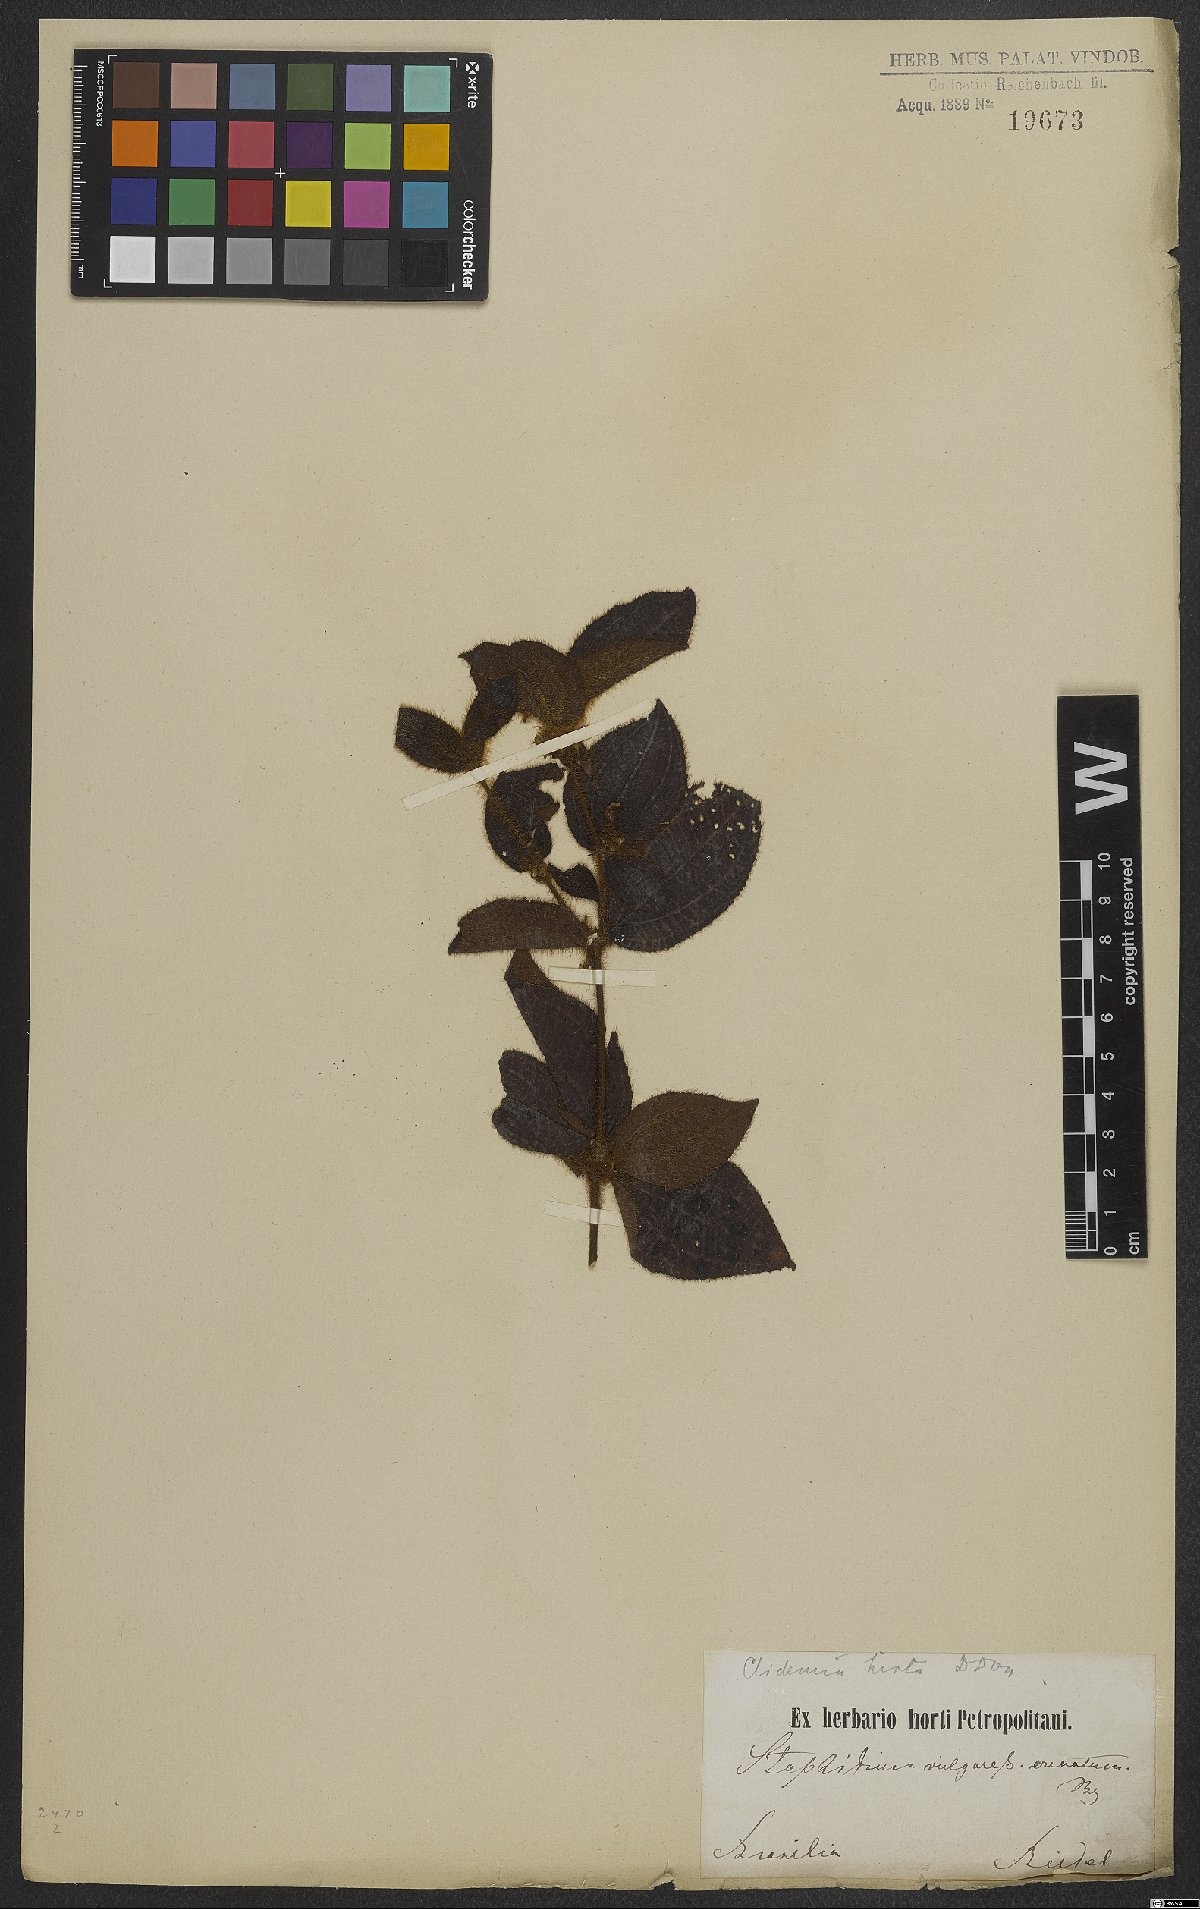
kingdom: Plantae
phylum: Tracheophyta
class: Magnoliopsida
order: Myrtales
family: Melastomataceae
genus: Miconia
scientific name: Miconia crenata
